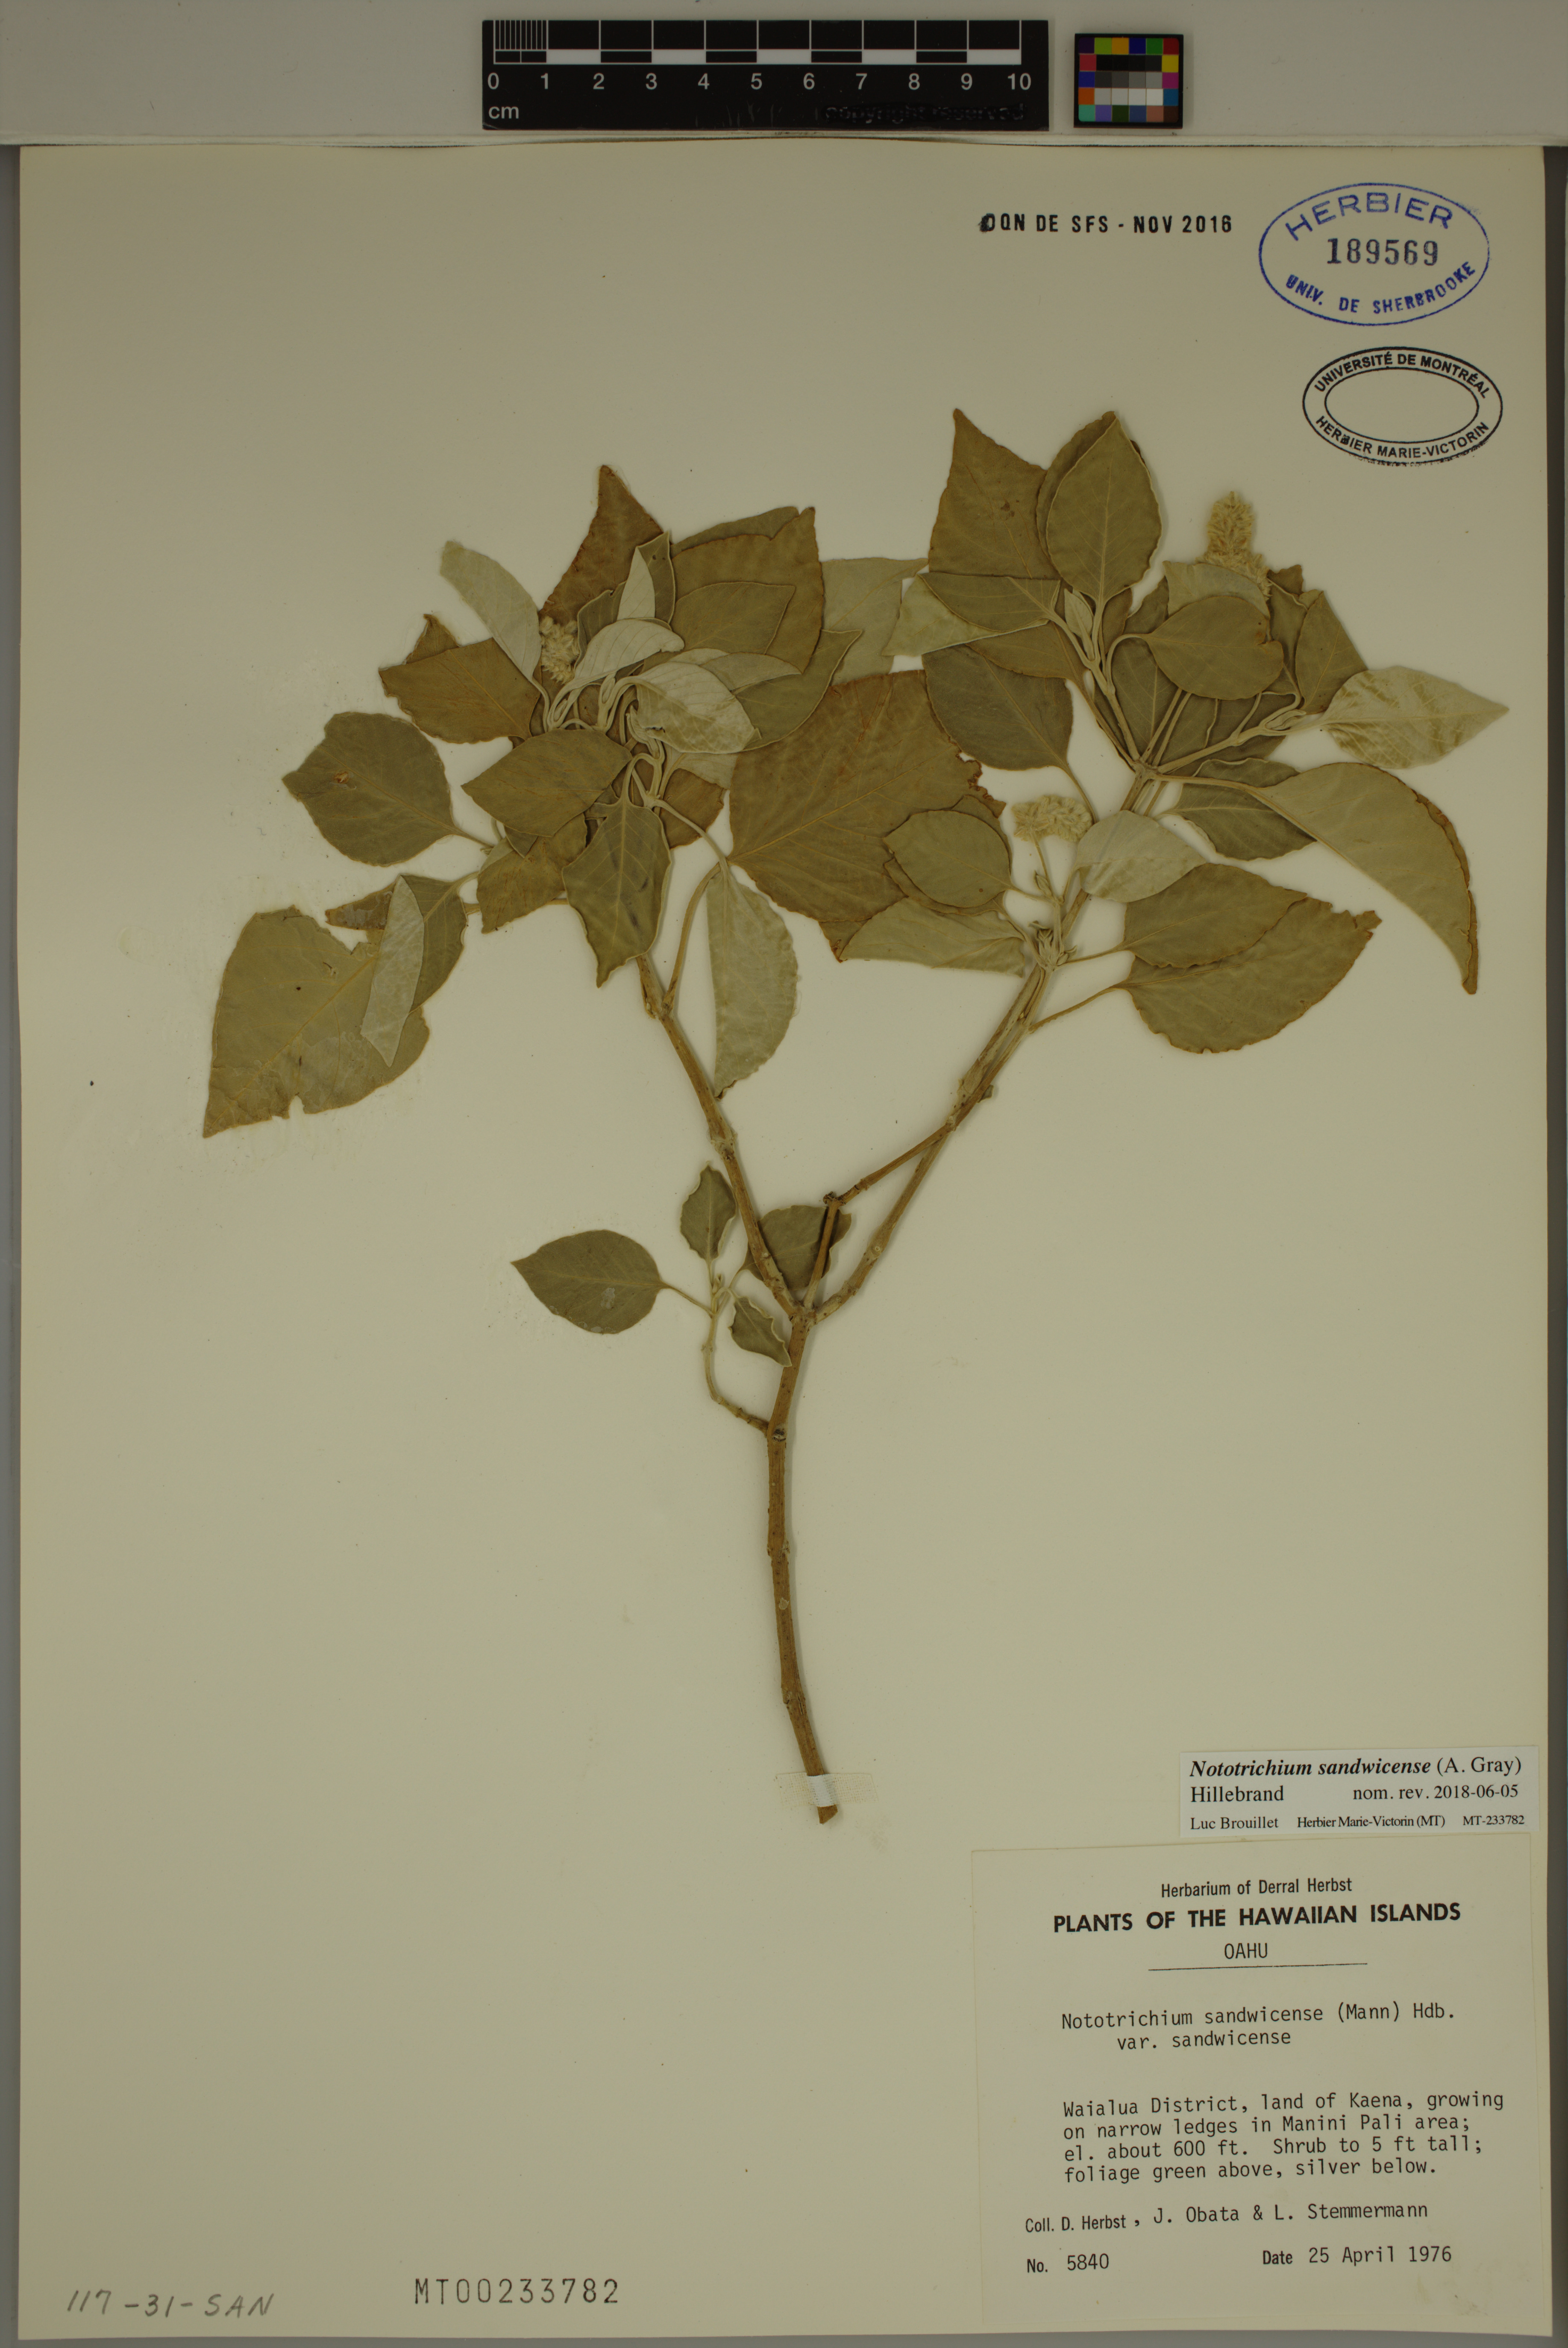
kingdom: Plantae
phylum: Tracheophyta
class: Magnoliopsida
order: Caryophyllales
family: Amaranthaceae
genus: Nototrichium
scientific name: Nototrichium sandwicense
